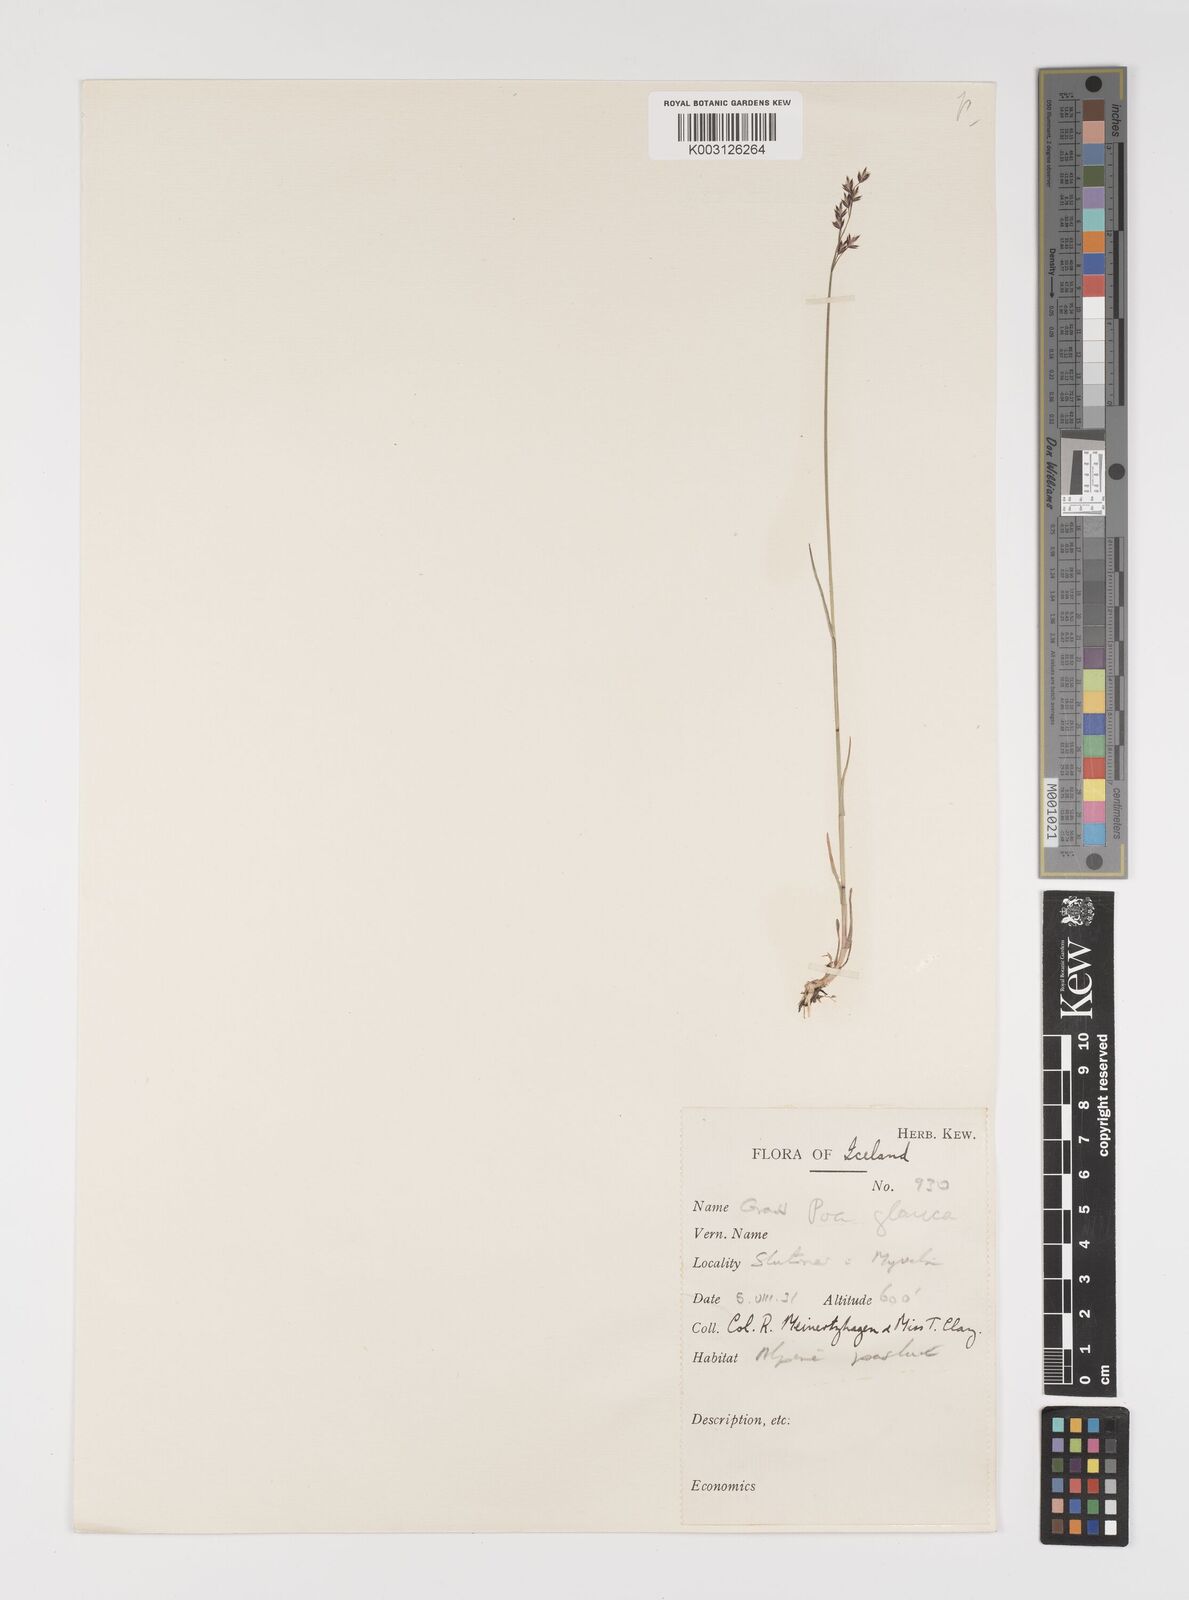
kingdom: Plantae
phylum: Tracheophyta
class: Liliopsida
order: Poales
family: Poaceae
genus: Poa
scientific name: Poa glauca
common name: Glaucous bluegrass
